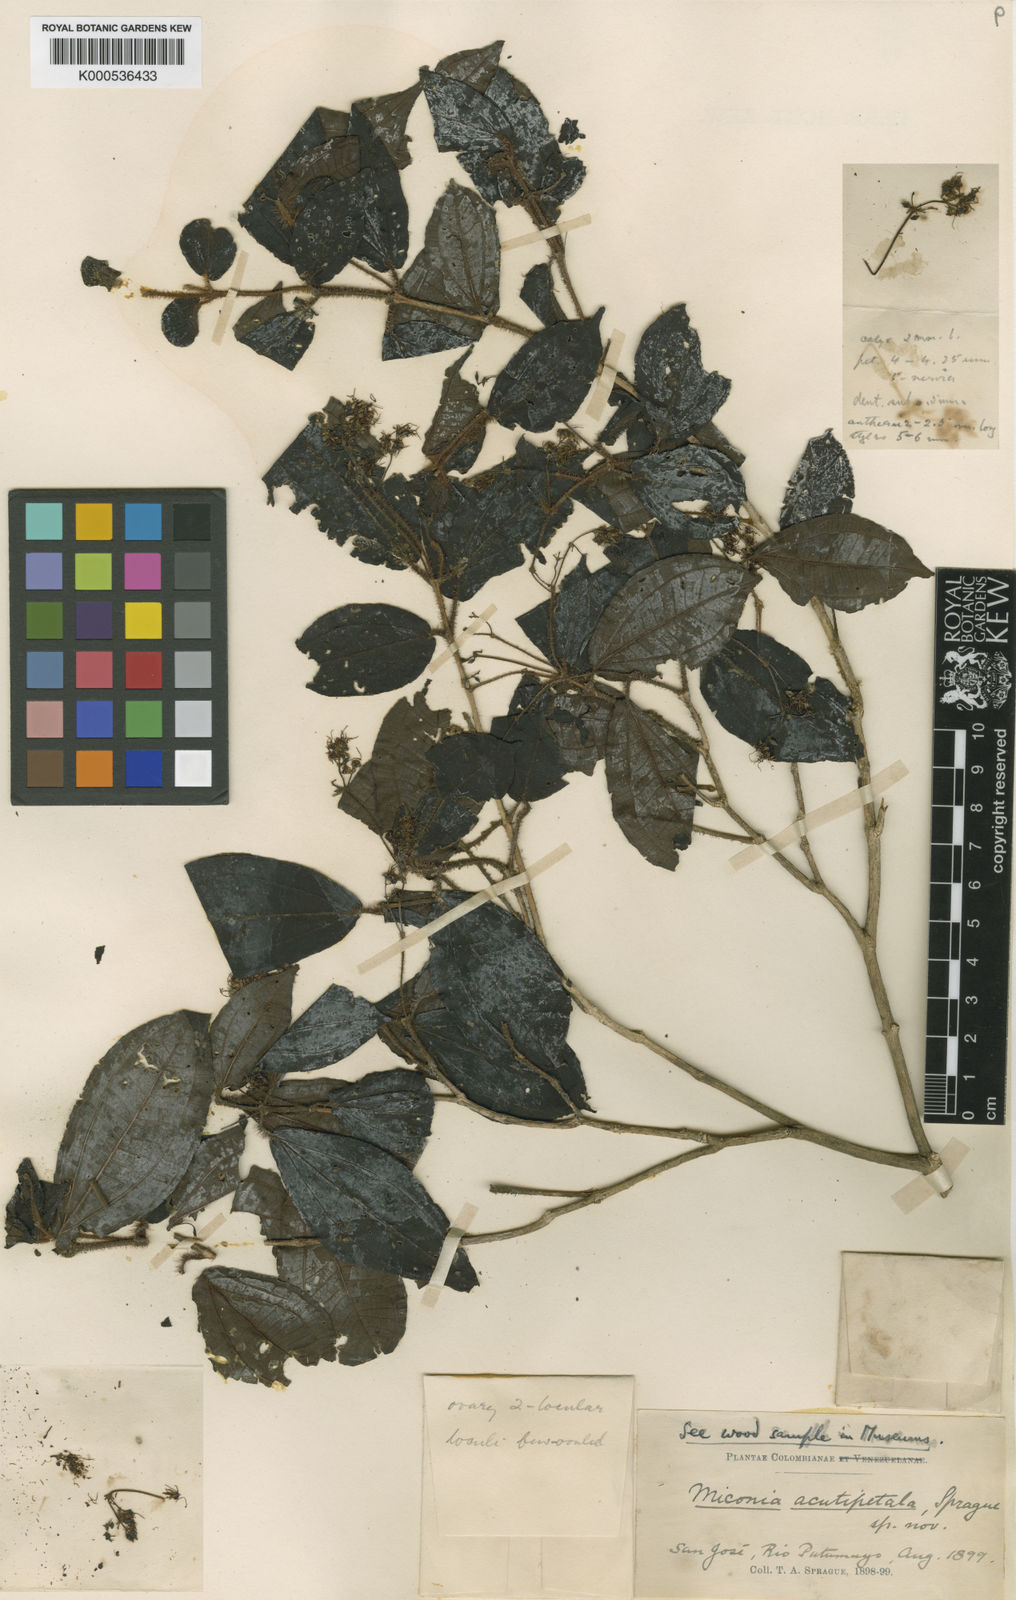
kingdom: Plantae
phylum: Tracheophyta
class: Magnoliopsida
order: Myrtales
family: Melastomataceae
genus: Miconia
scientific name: Miconia acutipetala
